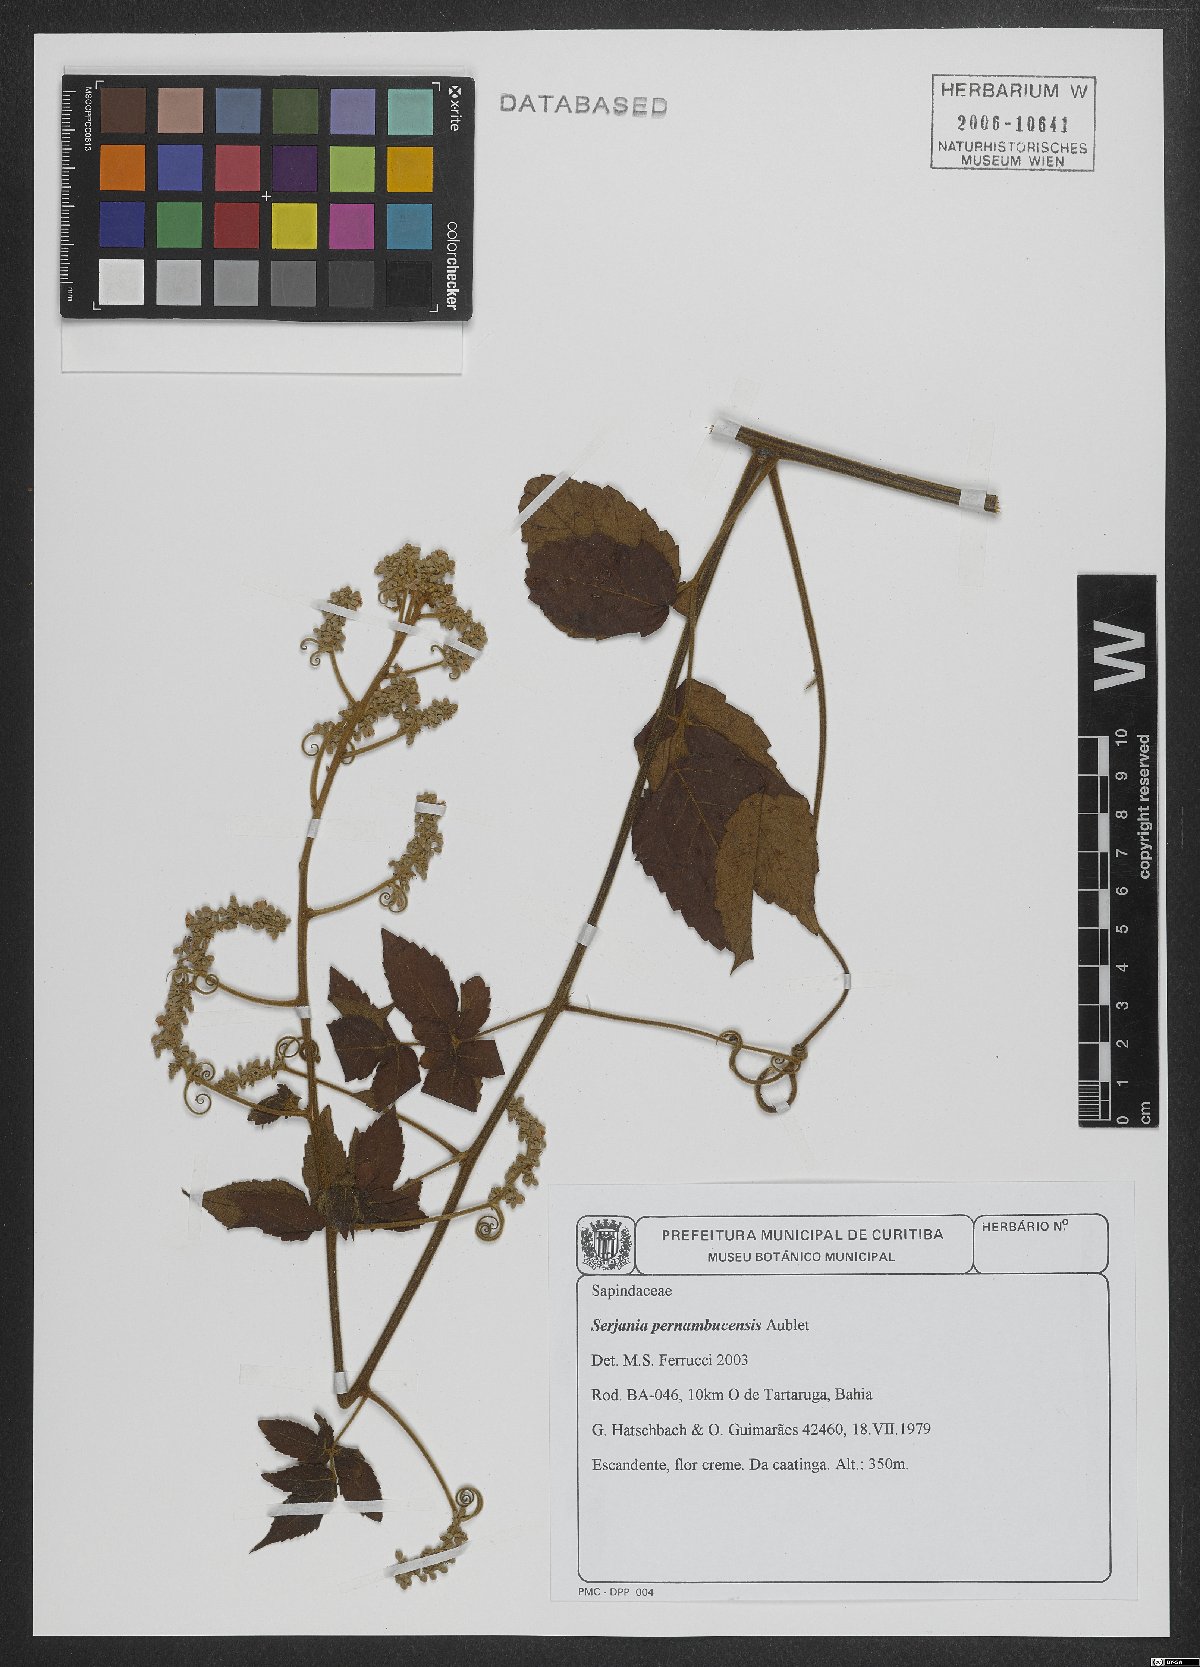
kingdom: Plantae
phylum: Tracheophyta
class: Magnoliopsida
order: Sapindales
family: Sapindaceae
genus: Serjania
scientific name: Serjania pernambucensis
